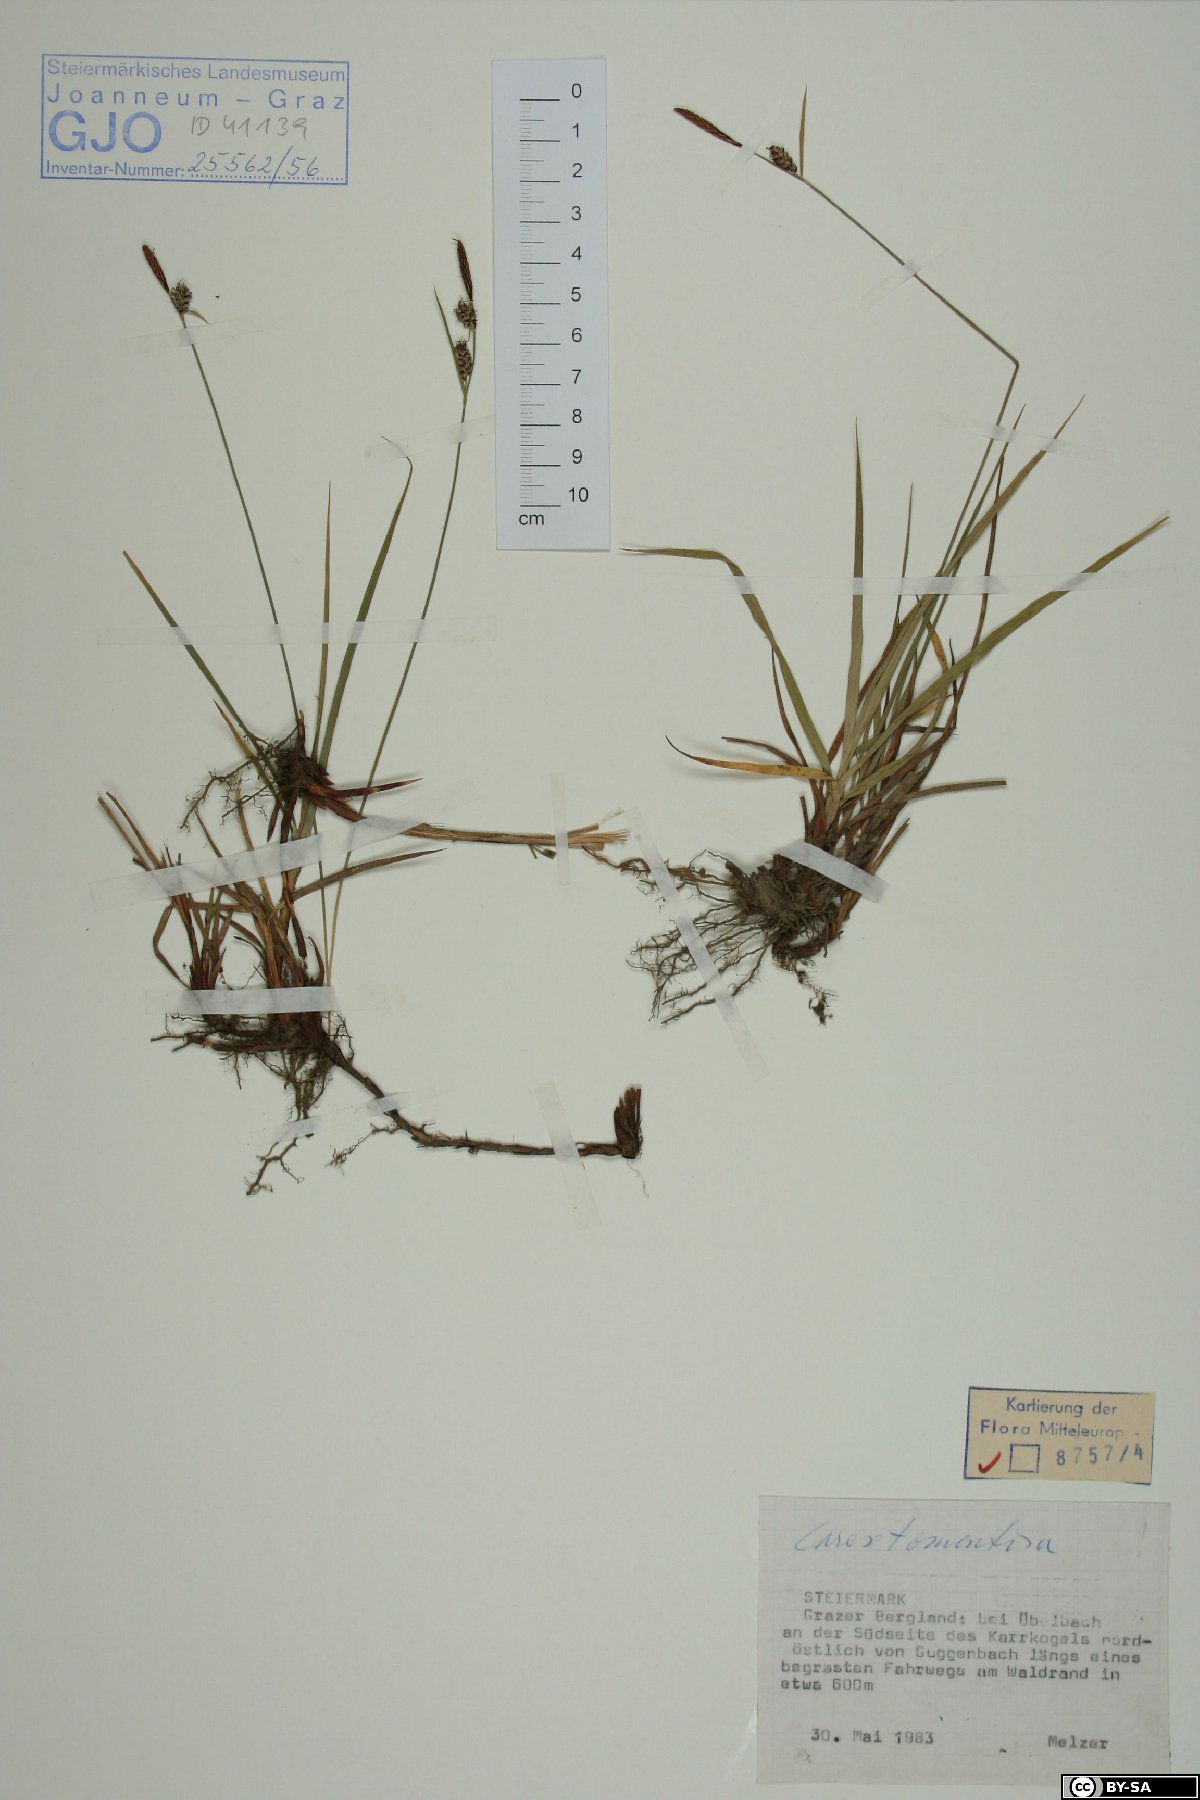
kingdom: Plantae
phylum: Tracheophyta
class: Liliopsida
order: Poales
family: Cyperaceae
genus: Carex
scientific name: Carex tomentosa
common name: Downy-fruited sedge
